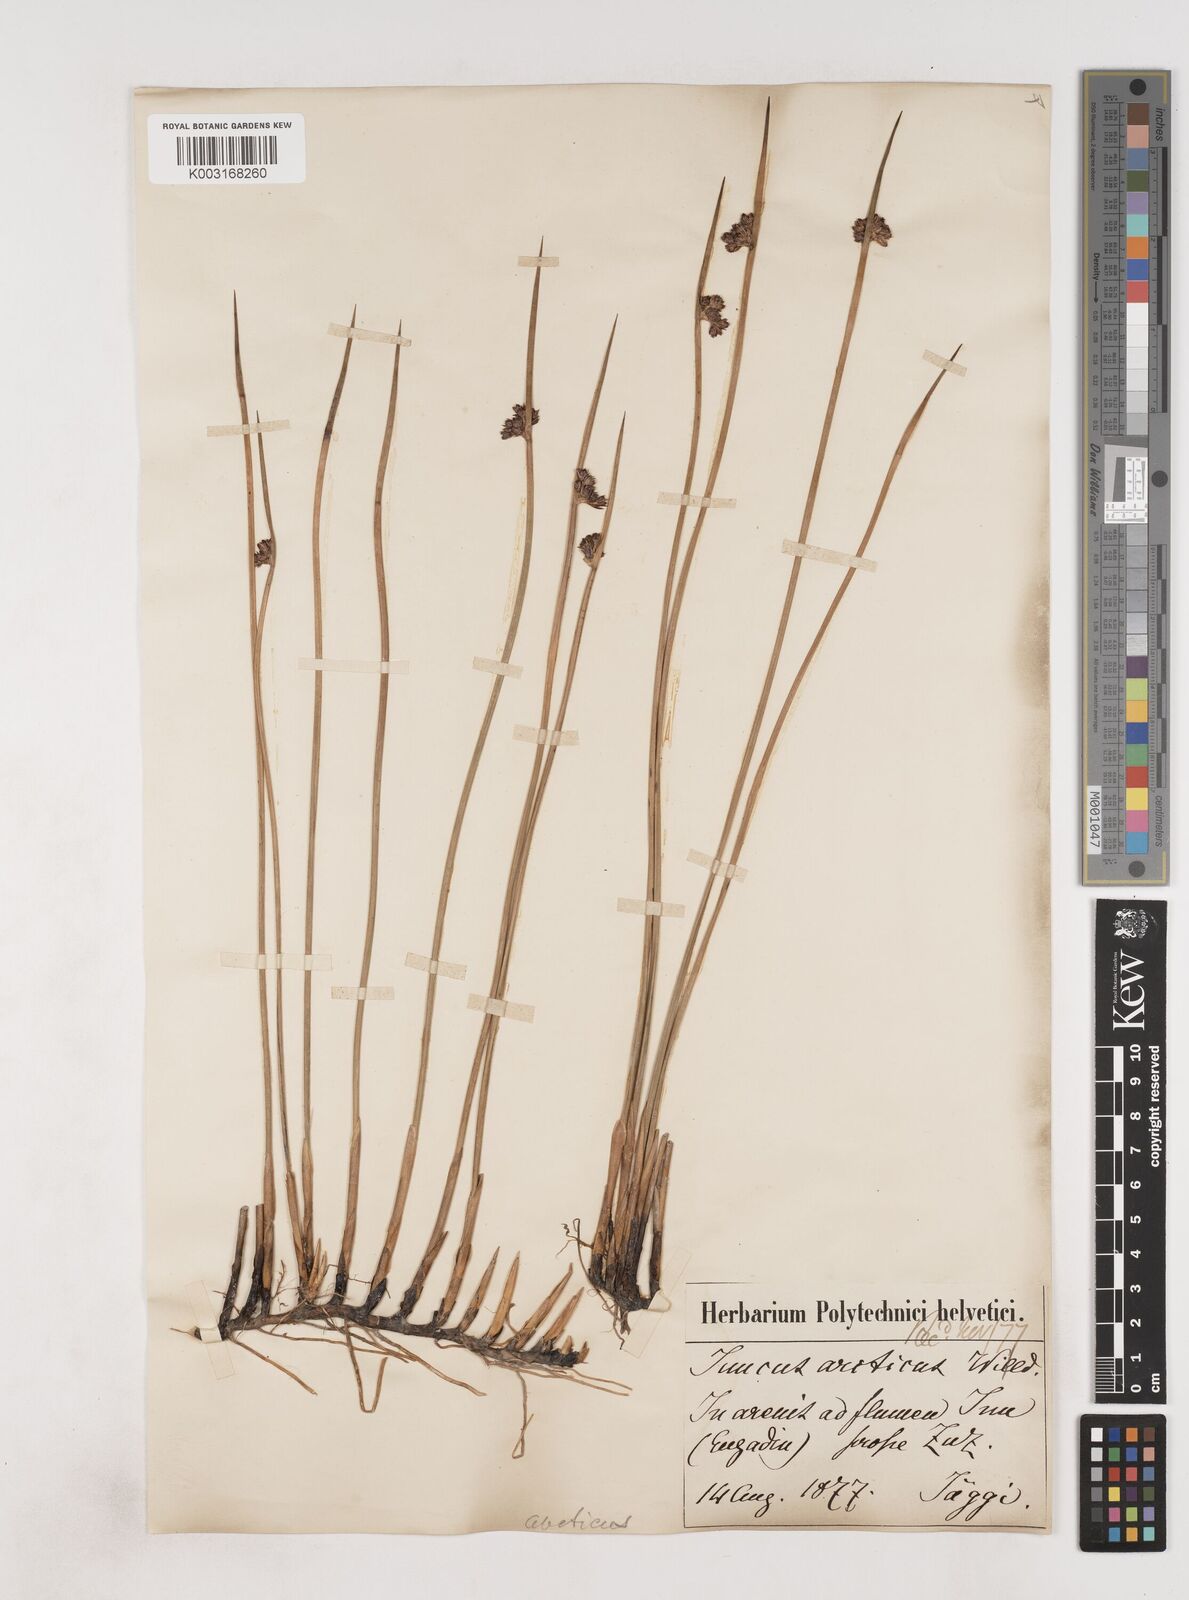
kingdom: Plantae
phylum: Tracheophyta
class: Liliopsida
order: Poales
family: Juncaceae
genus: Juncus
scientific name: Juncus arcticus
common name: Arctic rush
